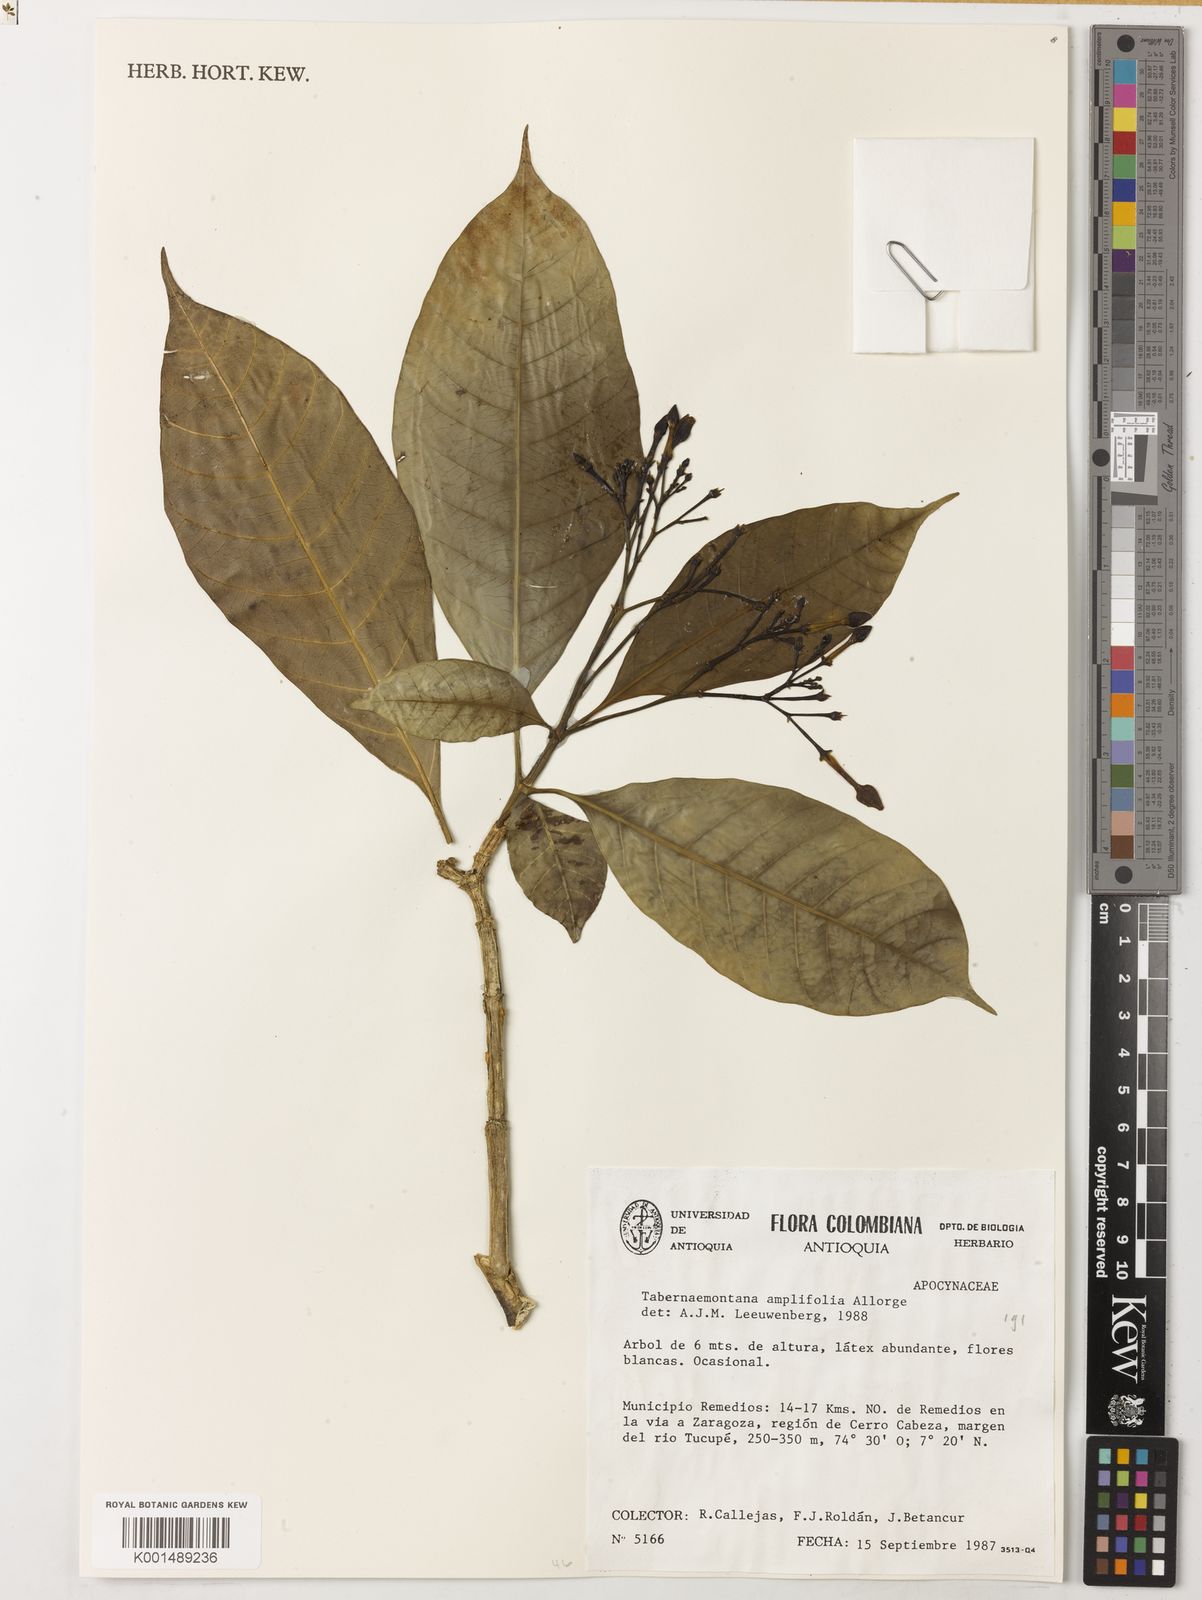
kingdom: Plantae
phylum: Tracheophyta
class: Magnoliopsida
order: Gentianales
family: Apocynaceae
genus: Tabernaemontana
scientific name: Tabernaemontana amplifolia
